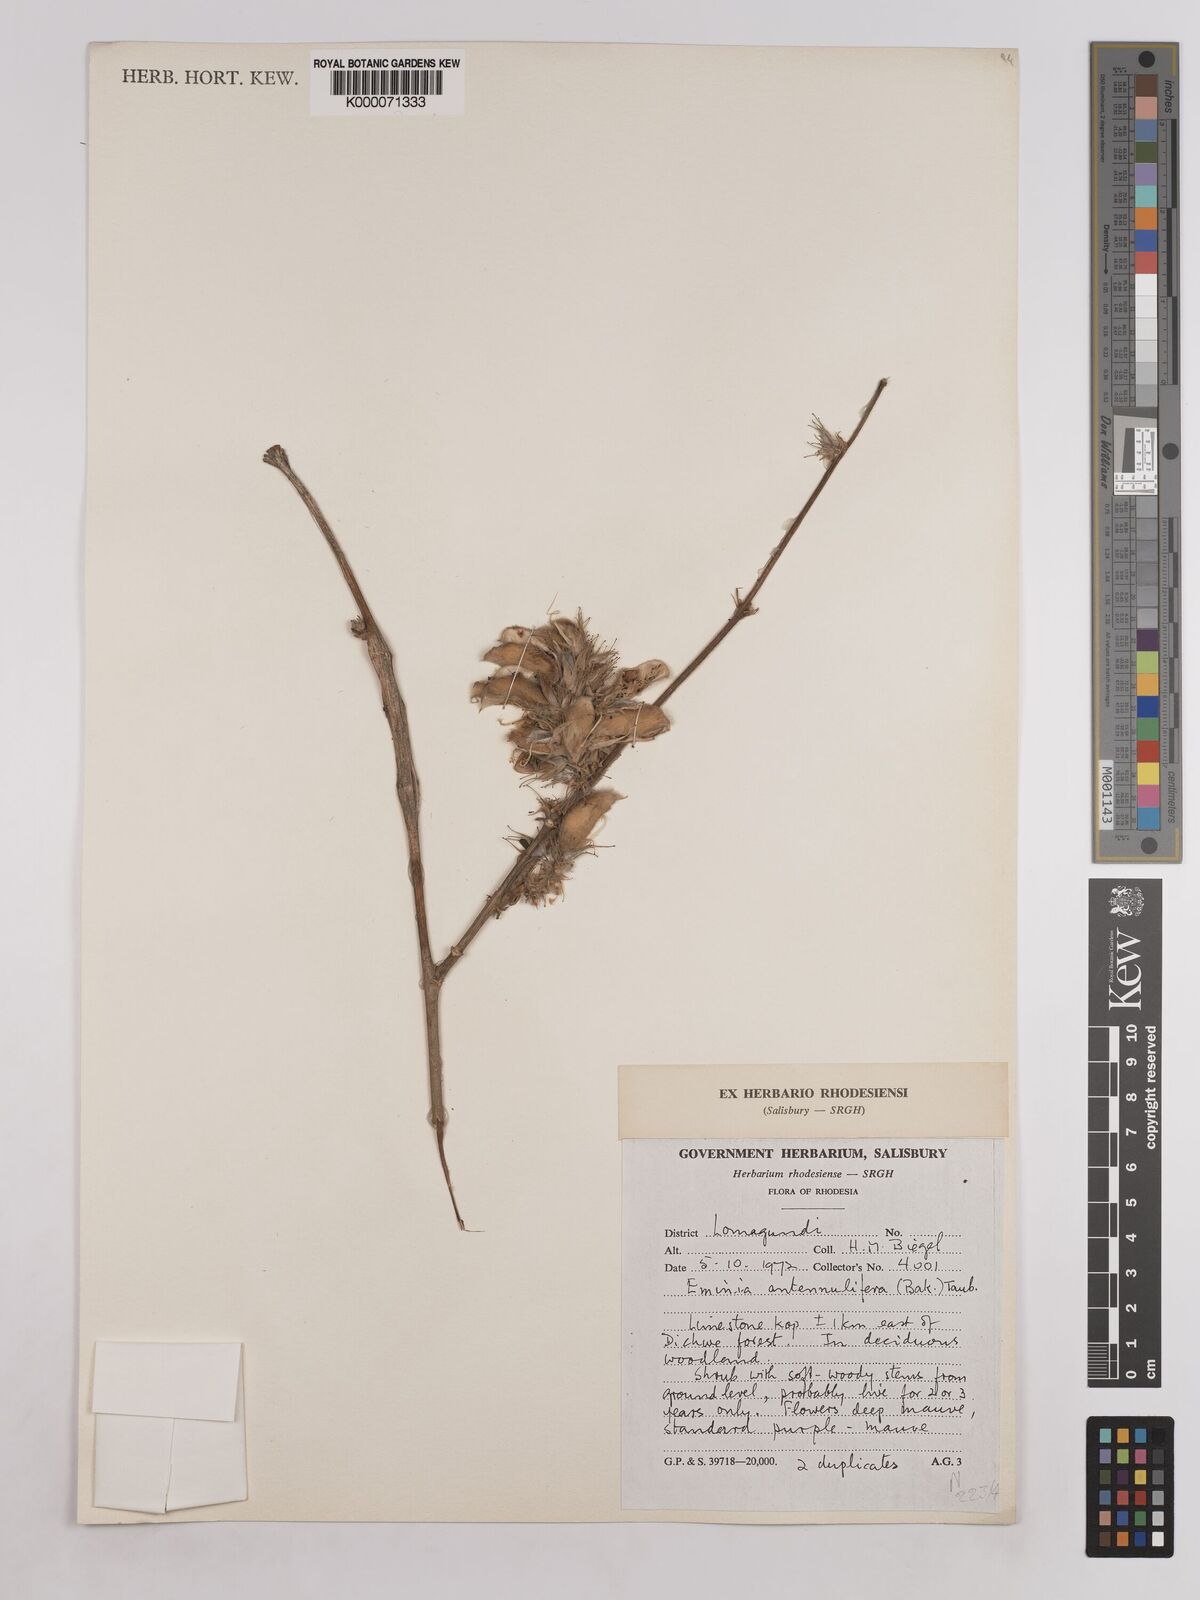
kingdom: Plantae
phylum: Tracheophyta
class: Magnoliopsida
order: Fabales
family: Fabaceae
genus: Eminia
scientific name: Eminia antennulifera
